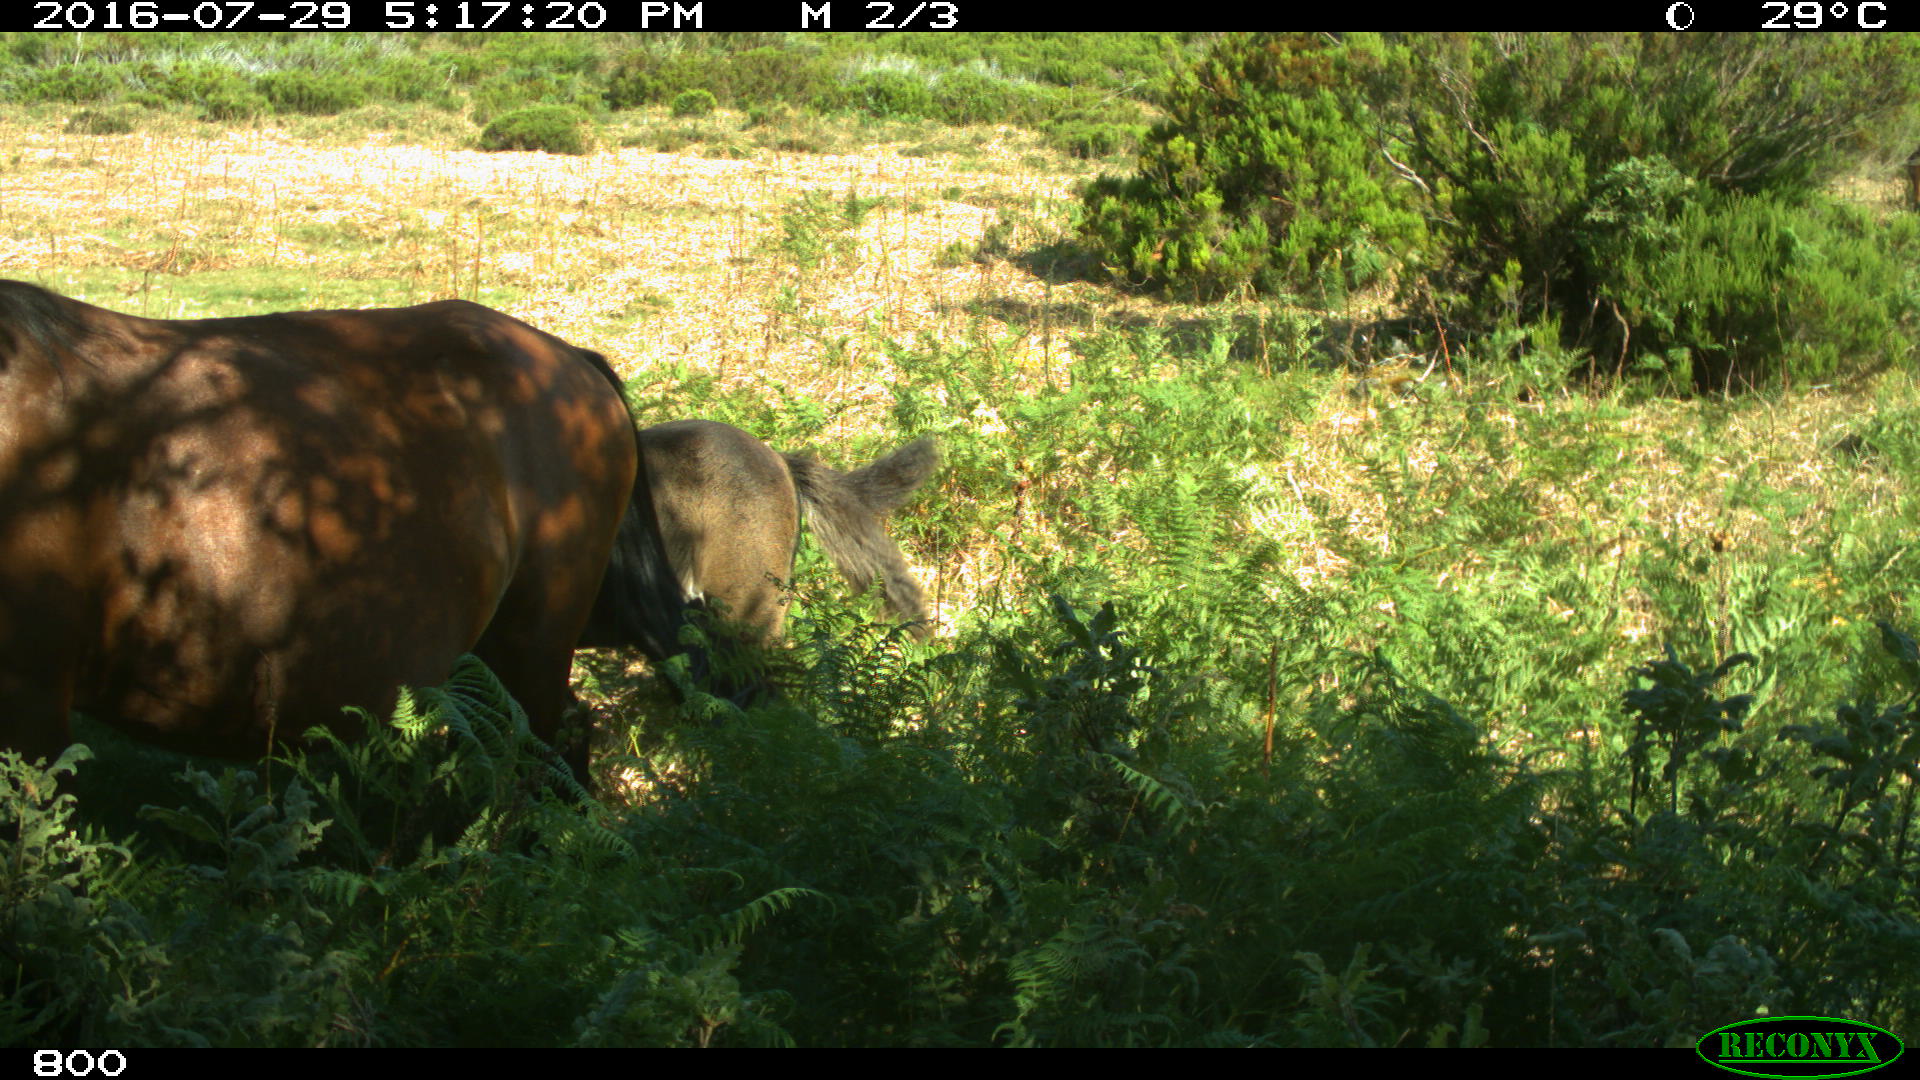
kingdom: Animalia
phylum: Chordata
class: Mammalia
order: Perissodactyla
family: Equidae
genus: Equus
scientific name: Equus caballus
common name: Horse
